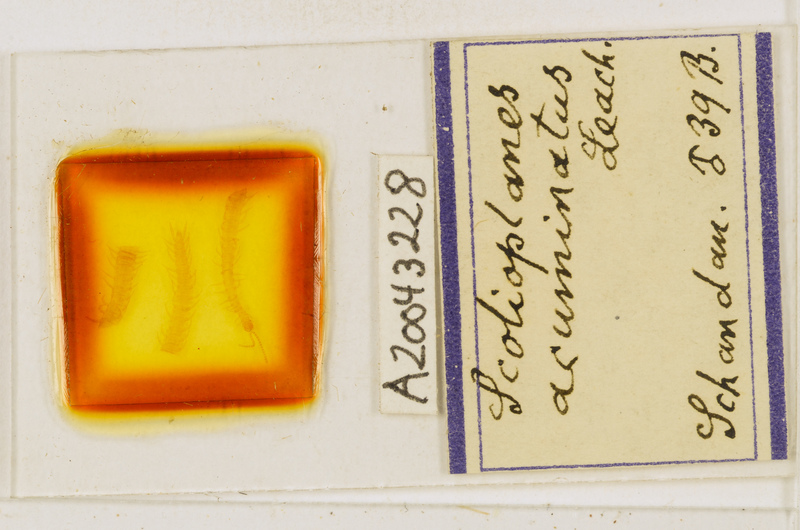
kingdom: Animalia
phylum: Arthropoda
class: Chilopoda
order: Geophilomorpha
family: Linotaeniidae
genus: Strigamia
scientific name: Strigamia acuminata
